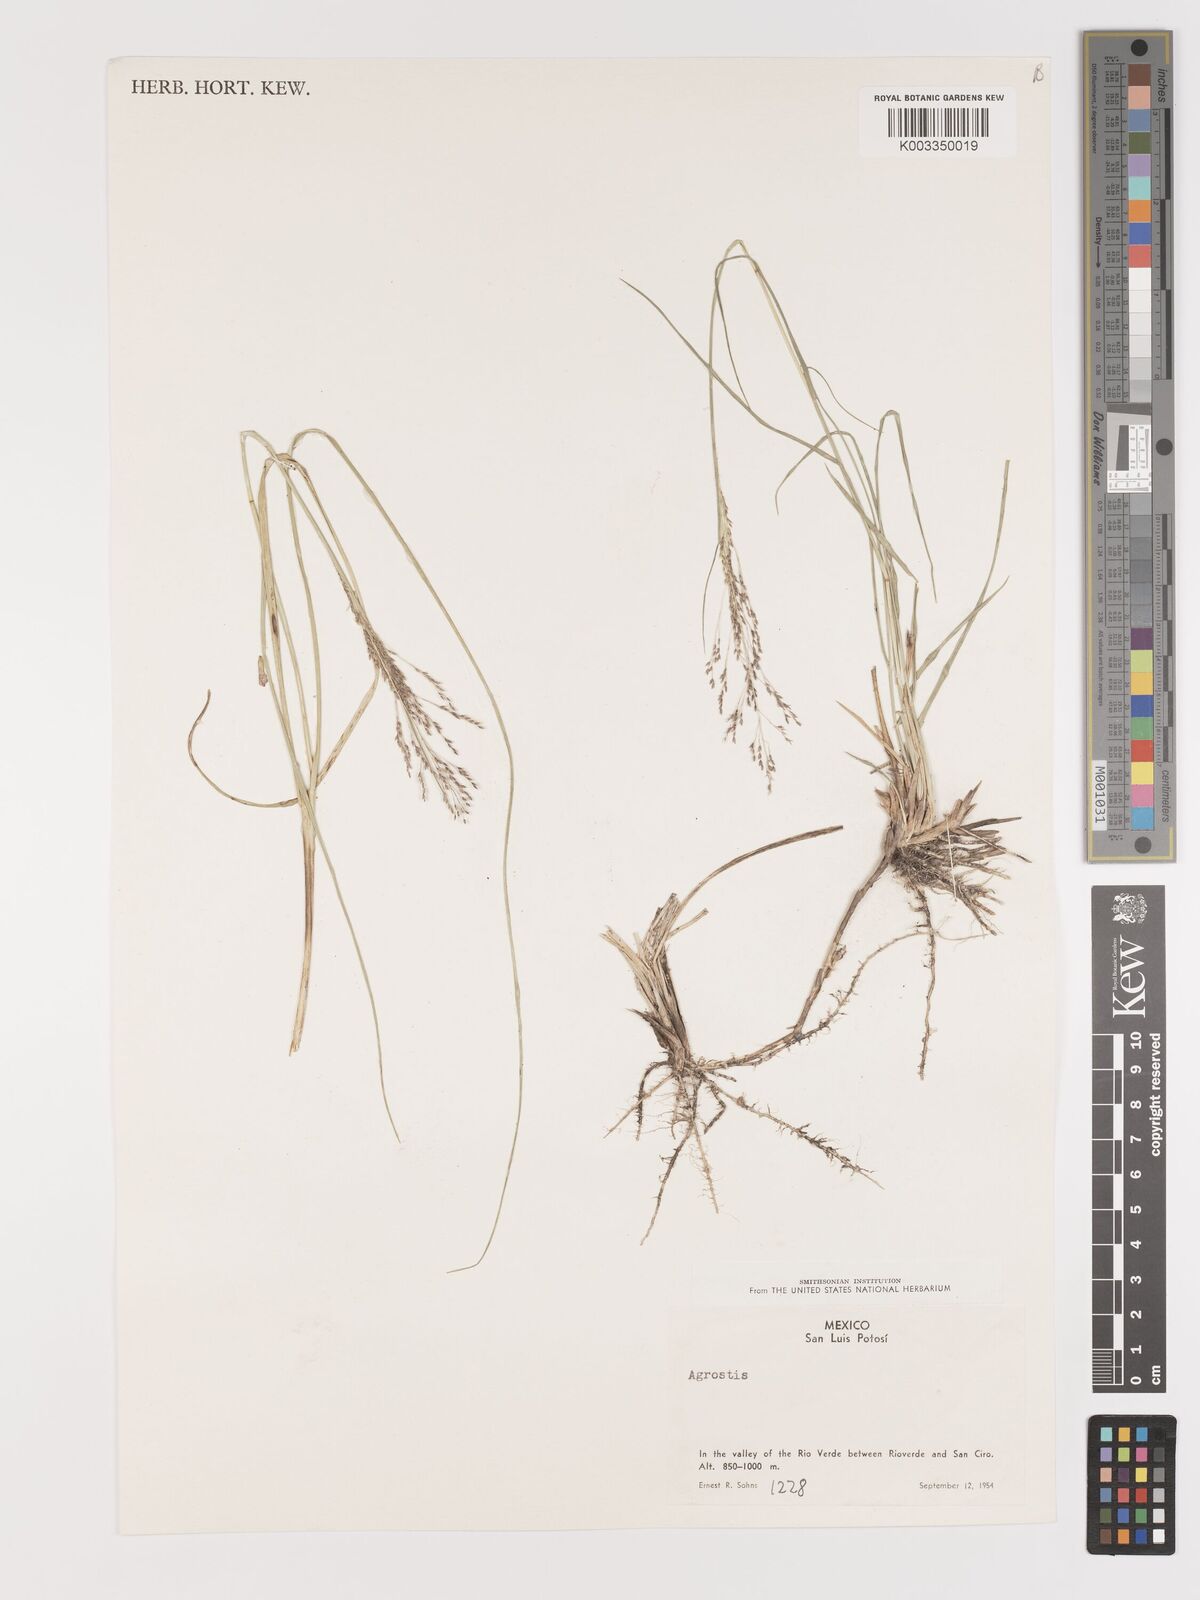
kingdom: Plantae
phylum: Tracheophyta
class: Liliopsida
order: Poales
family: Poaceae
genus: Agrostis
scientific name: Agrostis
